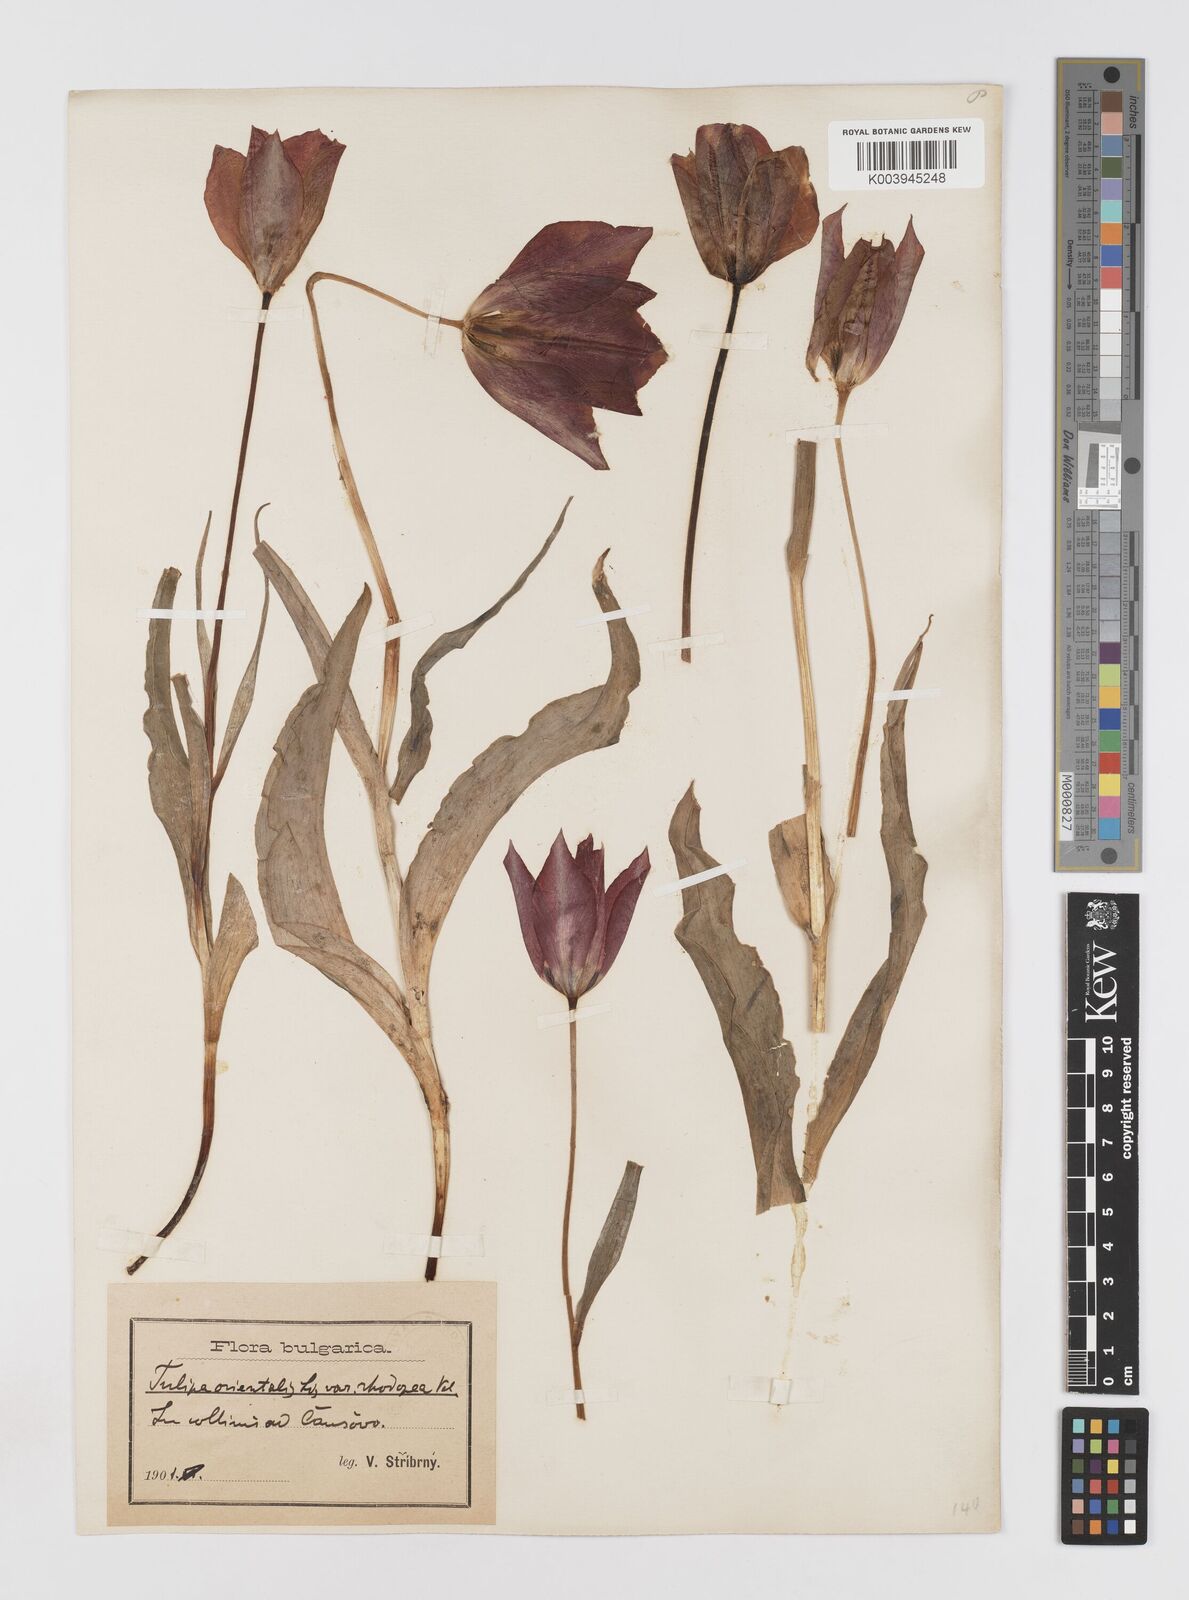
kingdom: Plantae
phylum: Tracheophyta
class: Liliopsida
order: Liliales
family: Liliaceae
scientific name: Liliaceae
